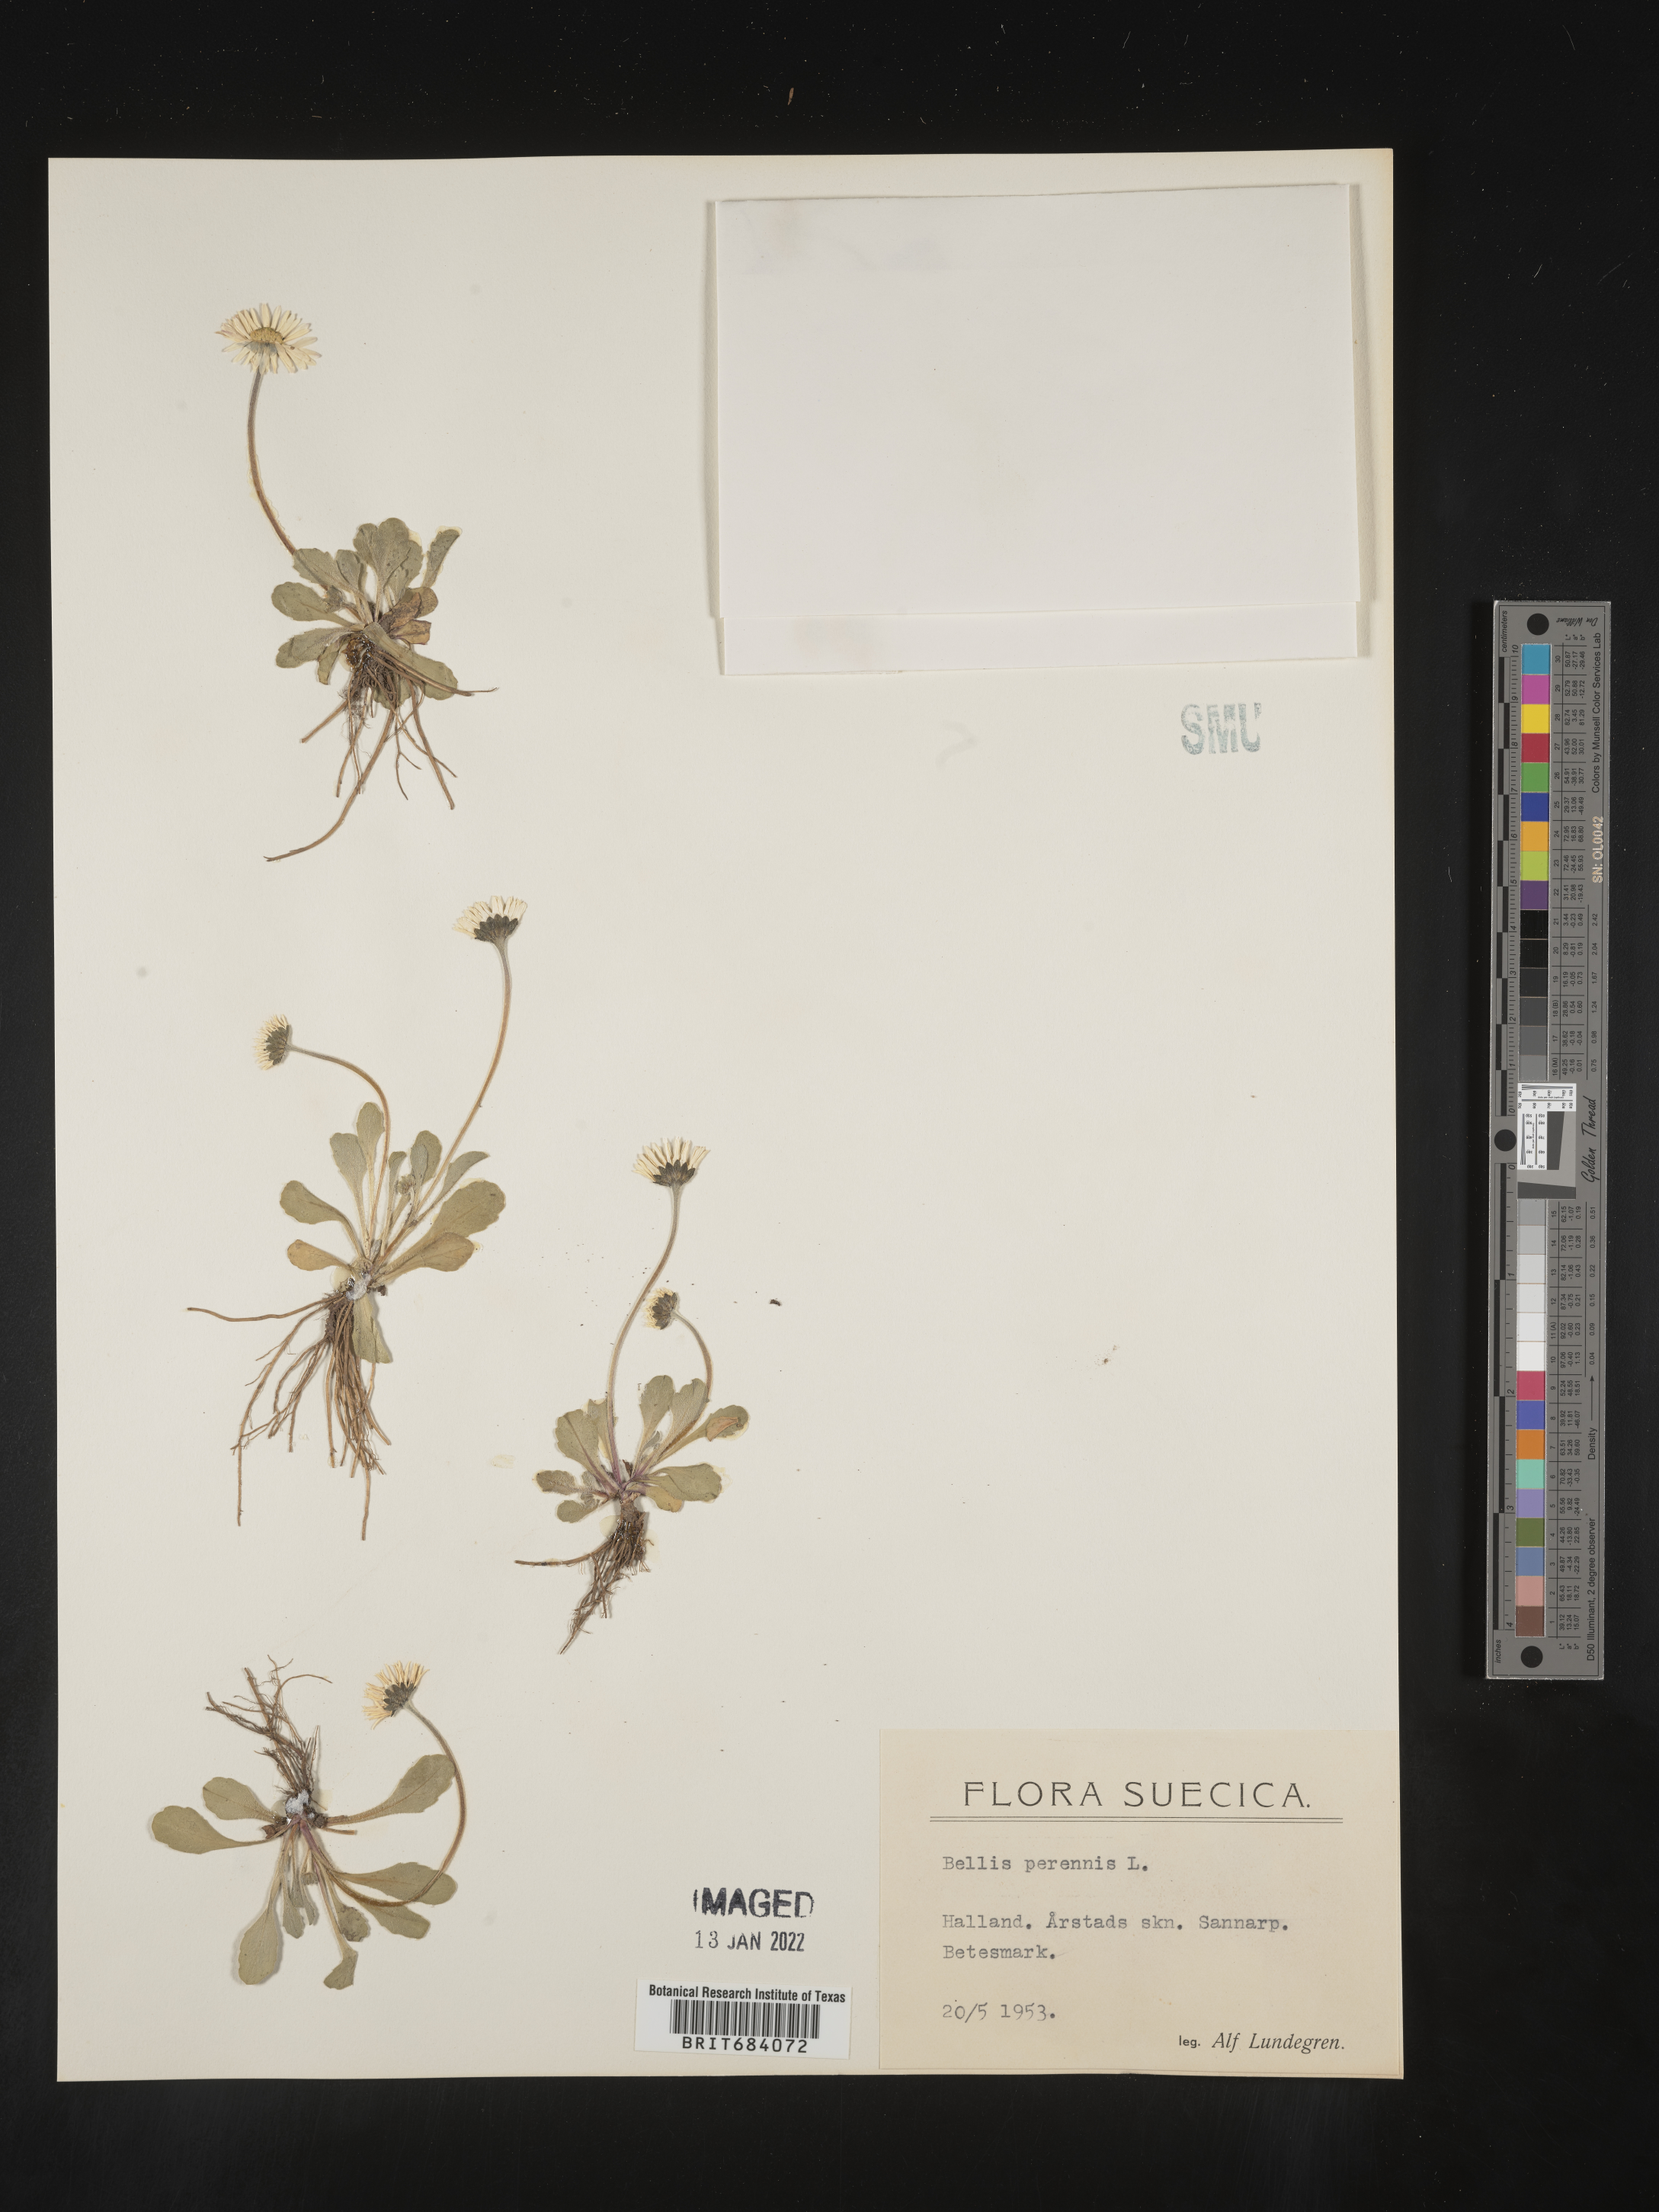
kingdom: Plantae
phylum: Tracheophyta
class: Magnoliopsida
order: Asterales
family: Asteraceae
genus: Bellis
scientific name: Bellis
